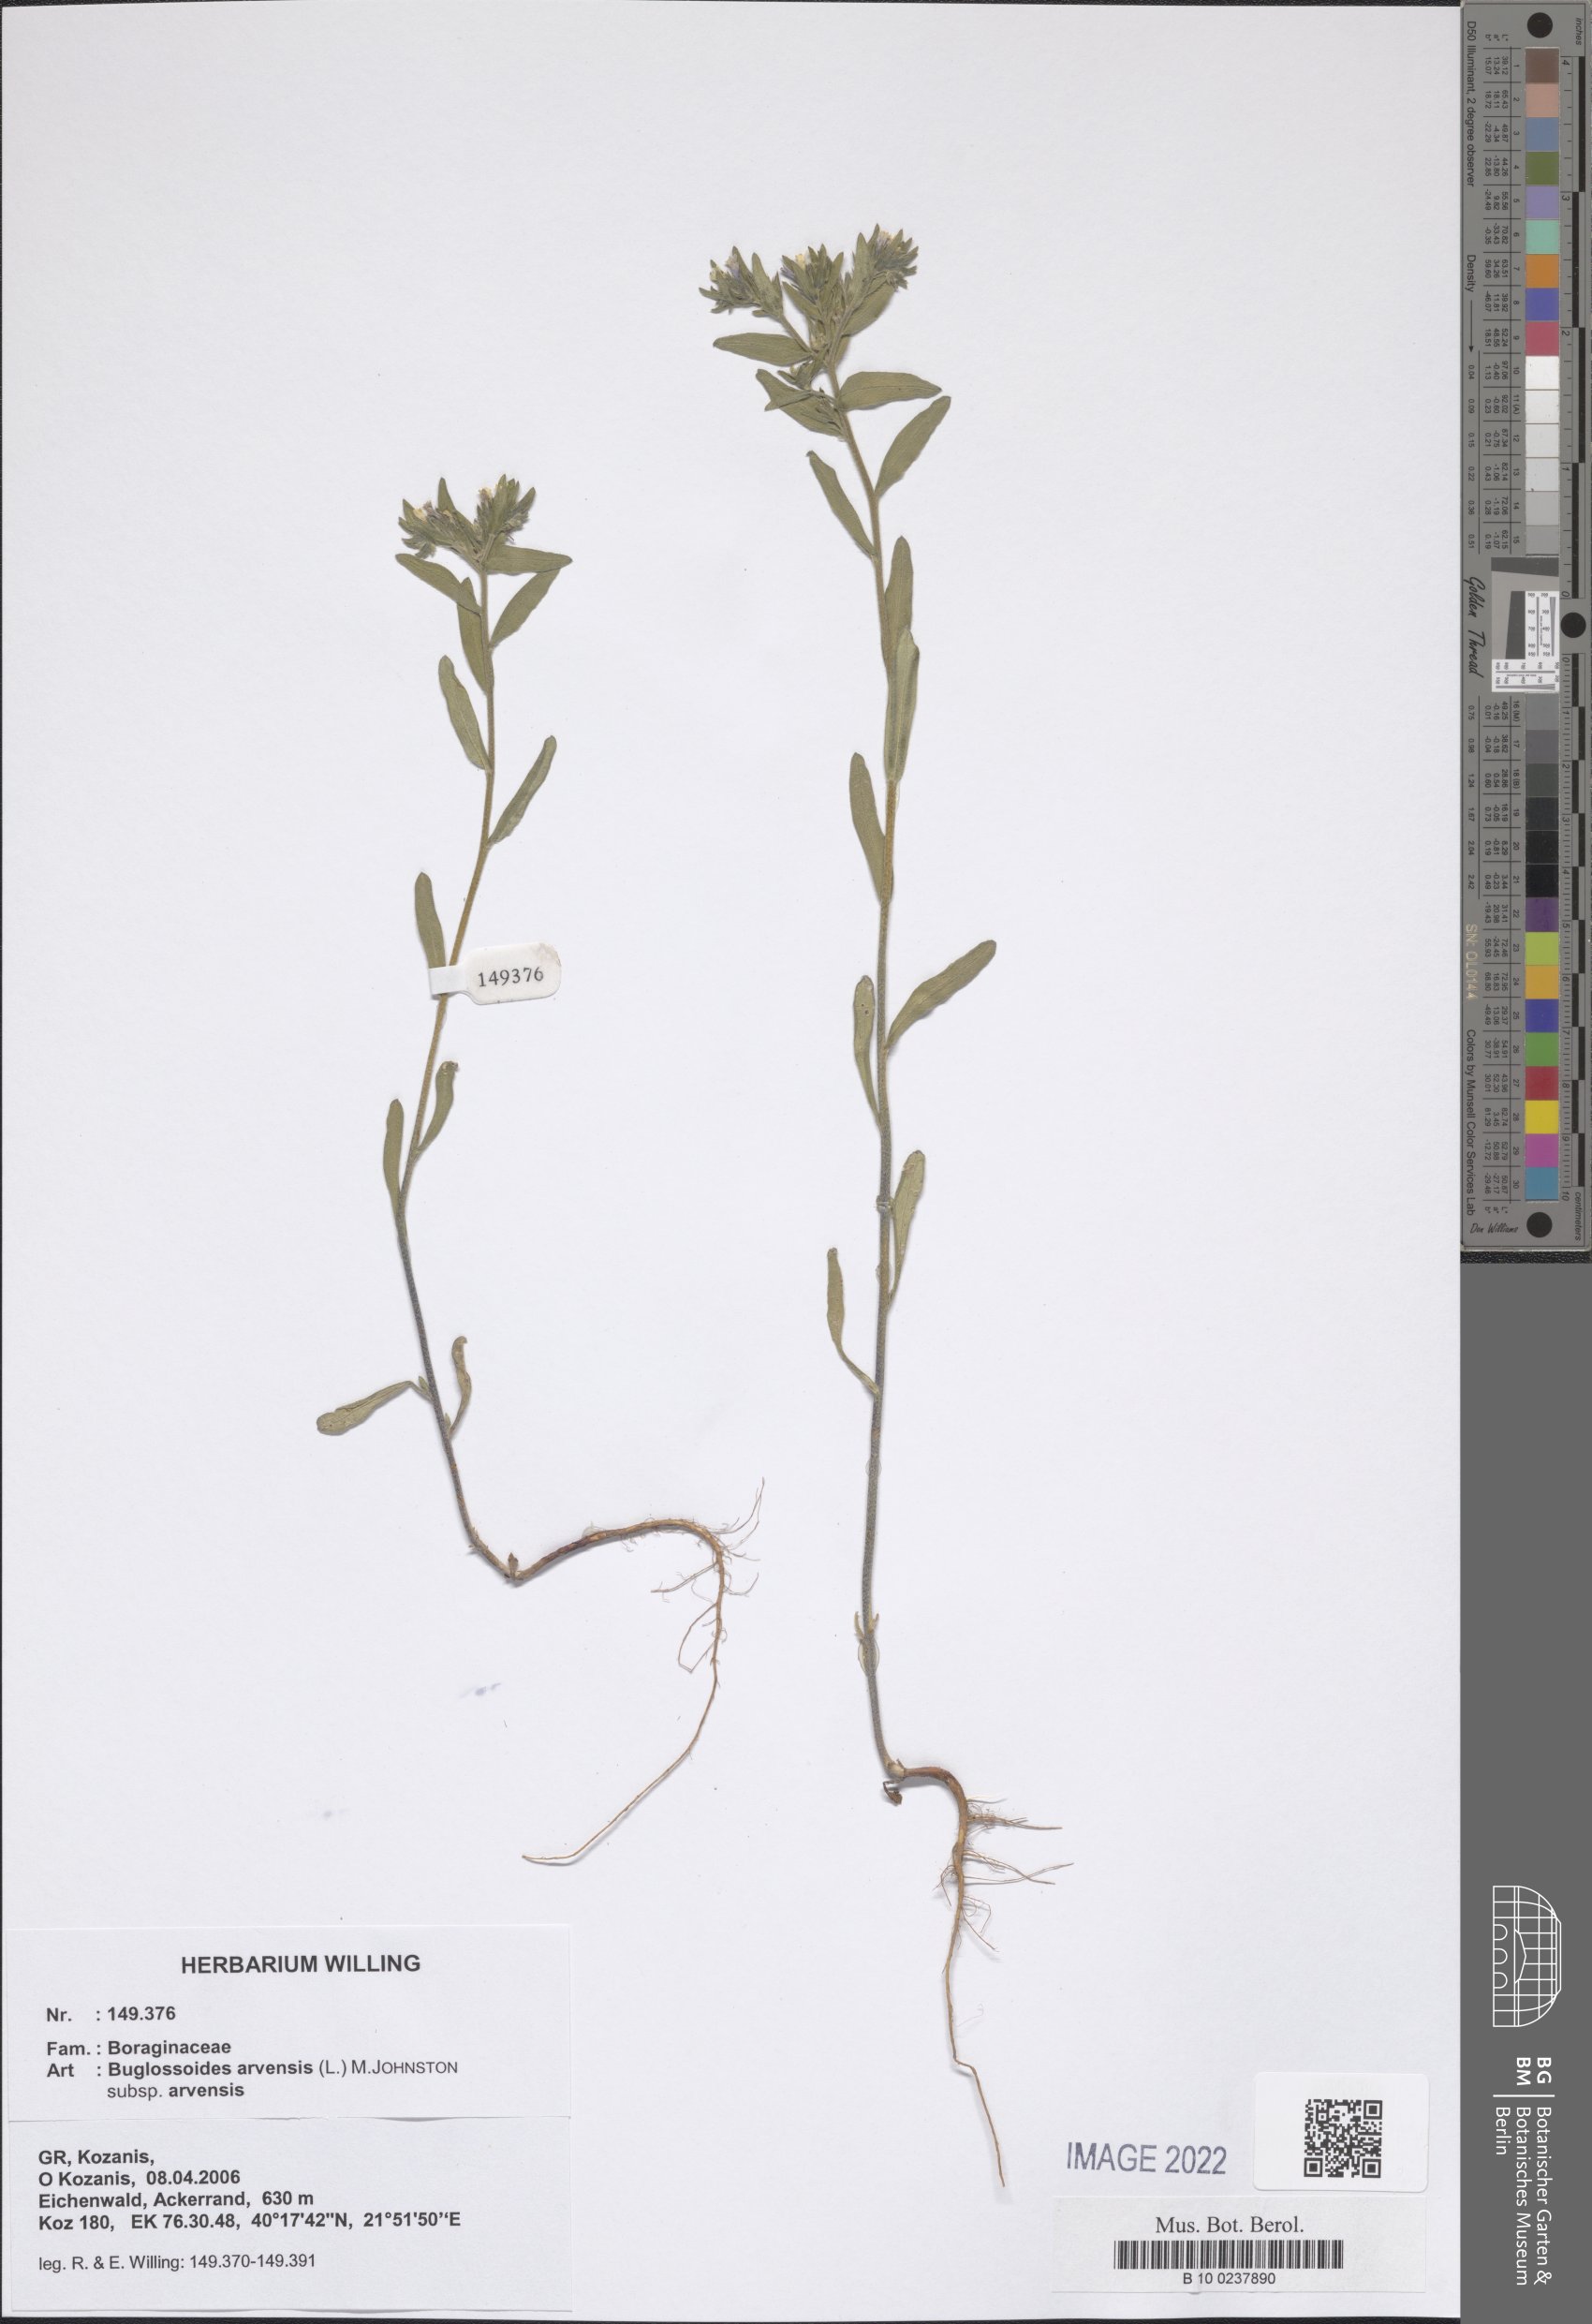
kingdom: Plantae
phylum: Tracheophyta
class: Magnoliopsida
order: Boraginales
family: Boraginaceae
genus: Buglossoides
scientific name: Buglossoides arvensis
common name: Corn gromwell
